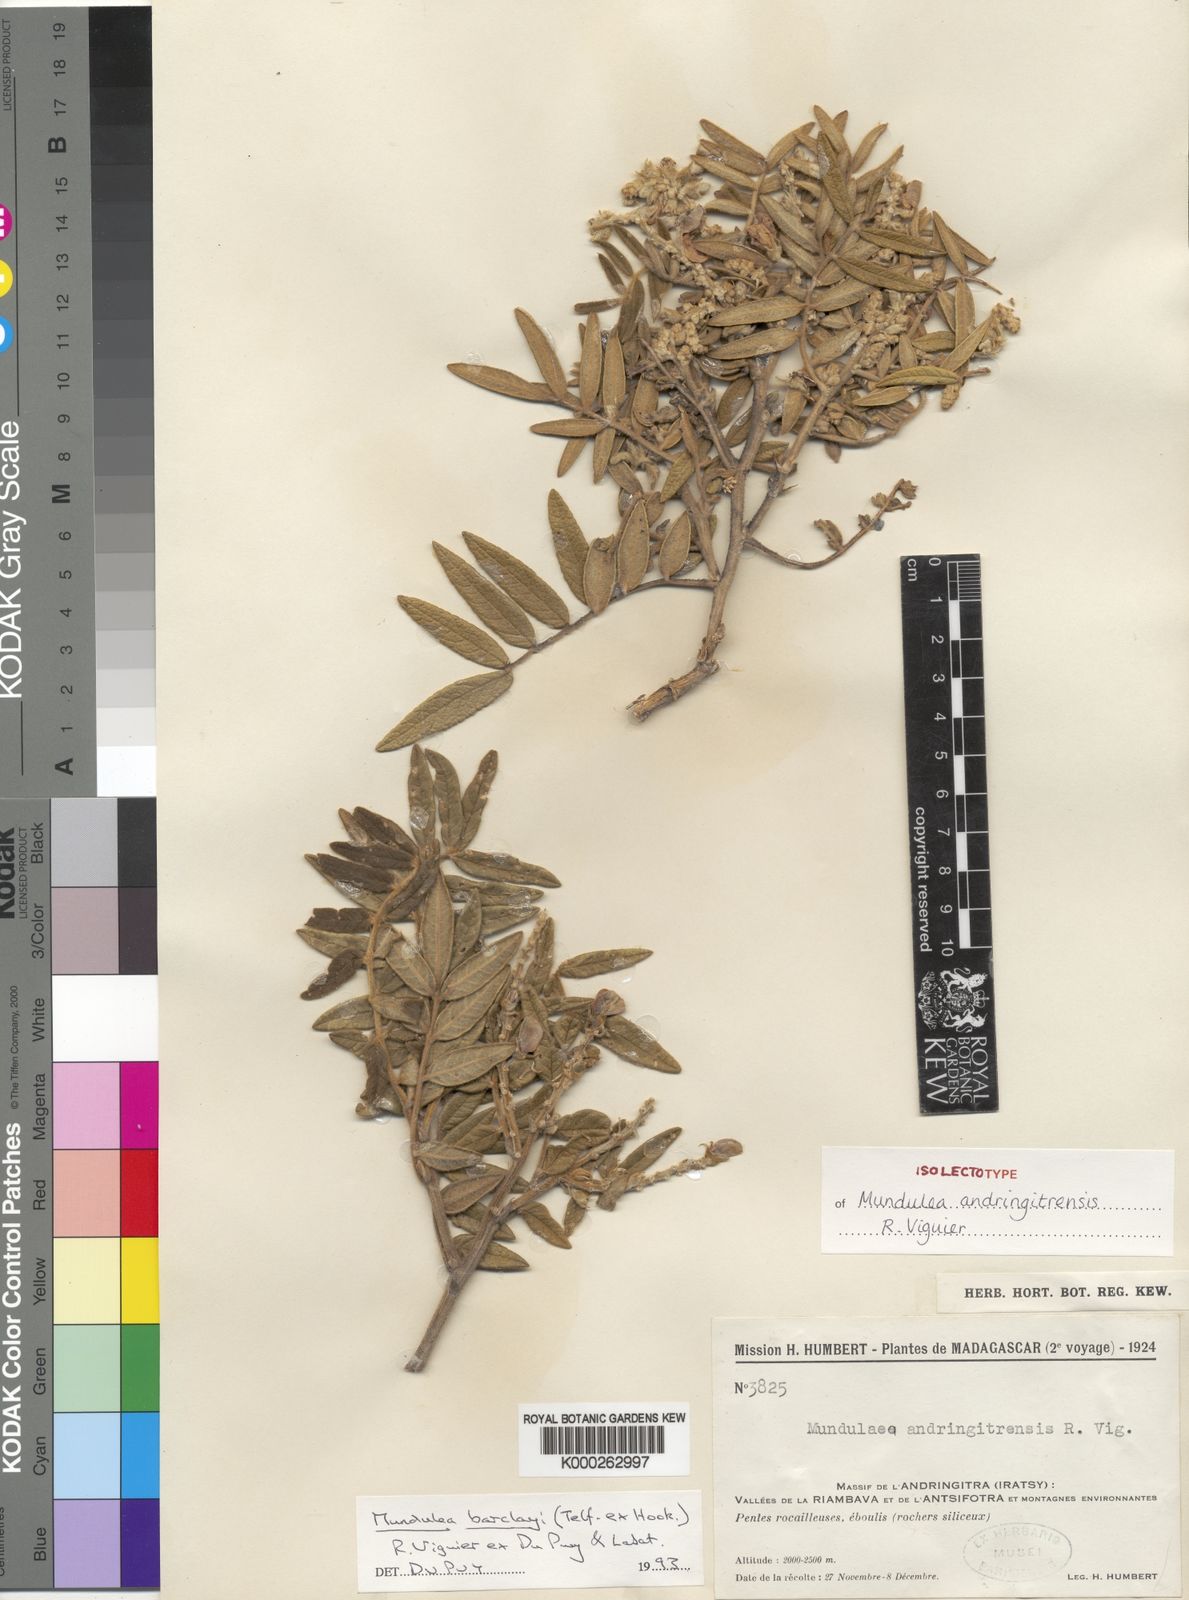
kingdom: Plantae
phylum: Tracheophyta
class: Magnoliopsida
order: Fabales
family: Fabaceae
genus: Mundulea
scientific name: Mundulea barclayi
